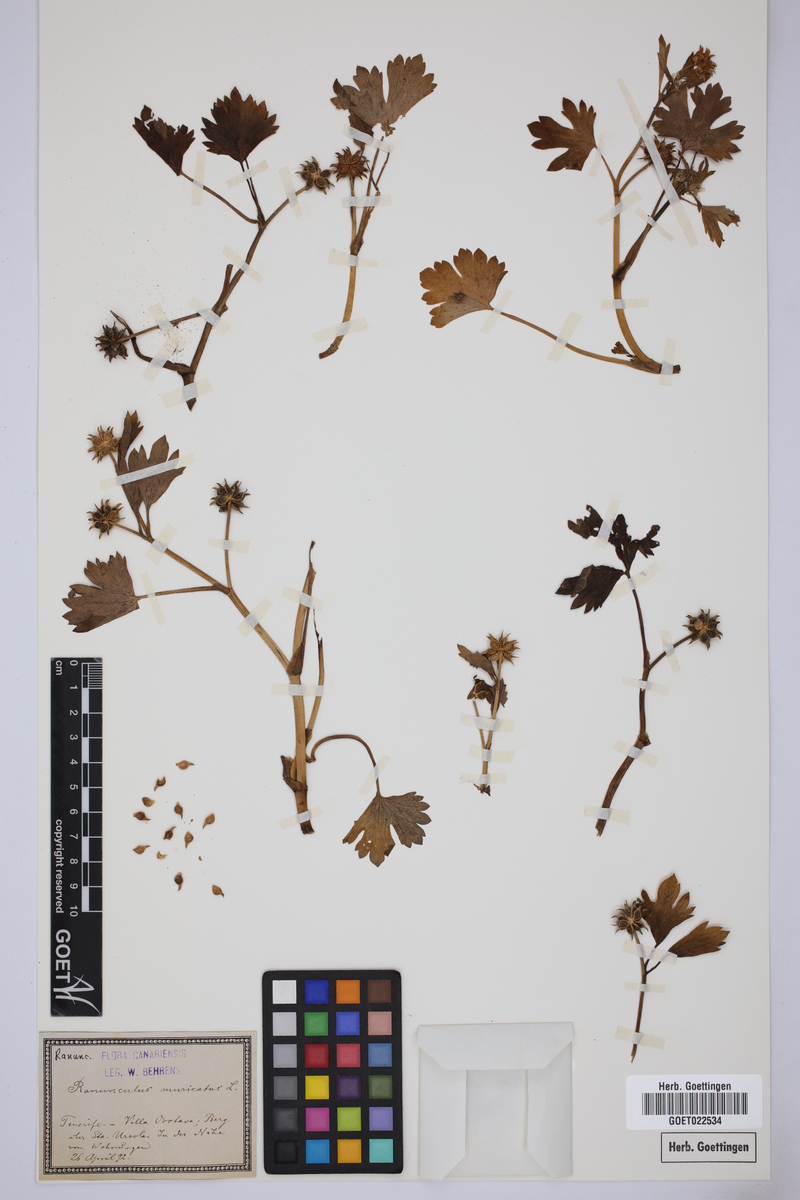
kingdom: Plantae
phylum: Tracheophyta
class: Magnoliopsida
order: Ranunculales
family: Ranunculaceae
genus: Ranunculus
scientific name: Ranunculus muricatus
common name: Rough-fruited buttercup
